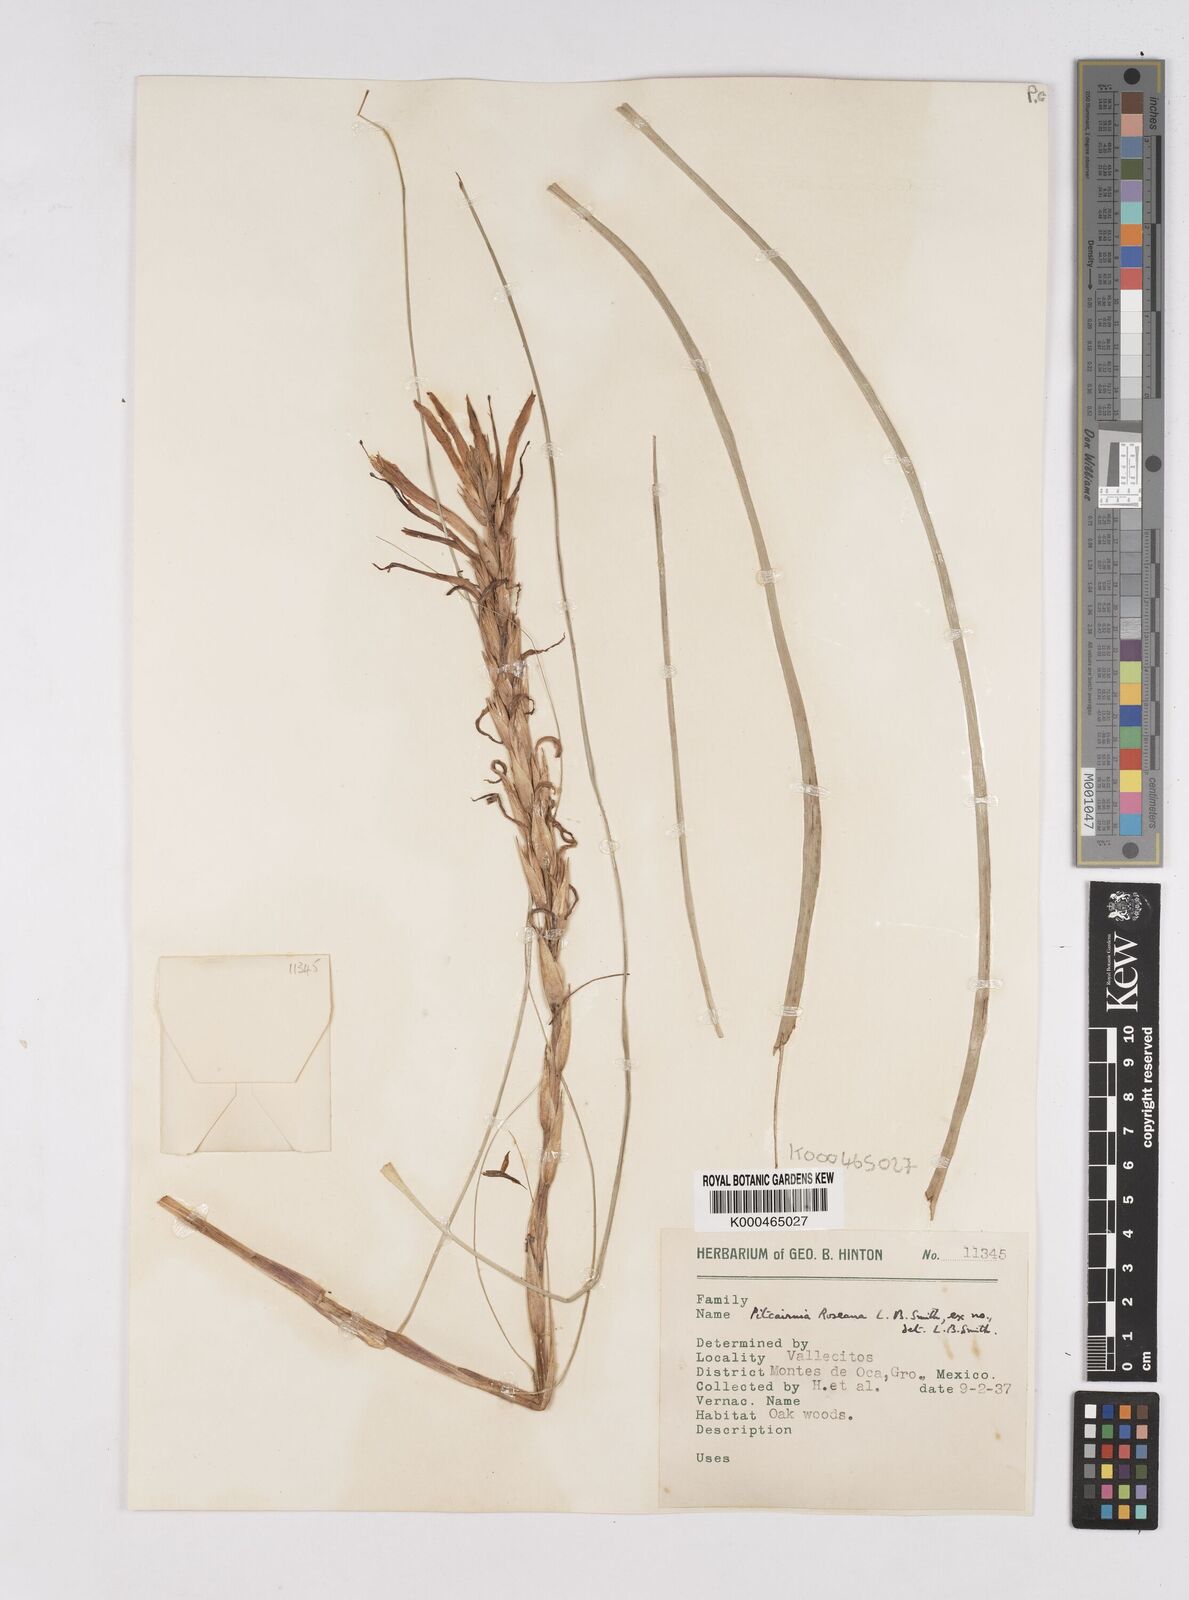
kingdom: Plantae
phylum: Tracheophyta
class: Liliopsida
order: Poales
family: Bromeliaceae
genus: Pitcairnia
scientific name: Pitcairnia roseana
